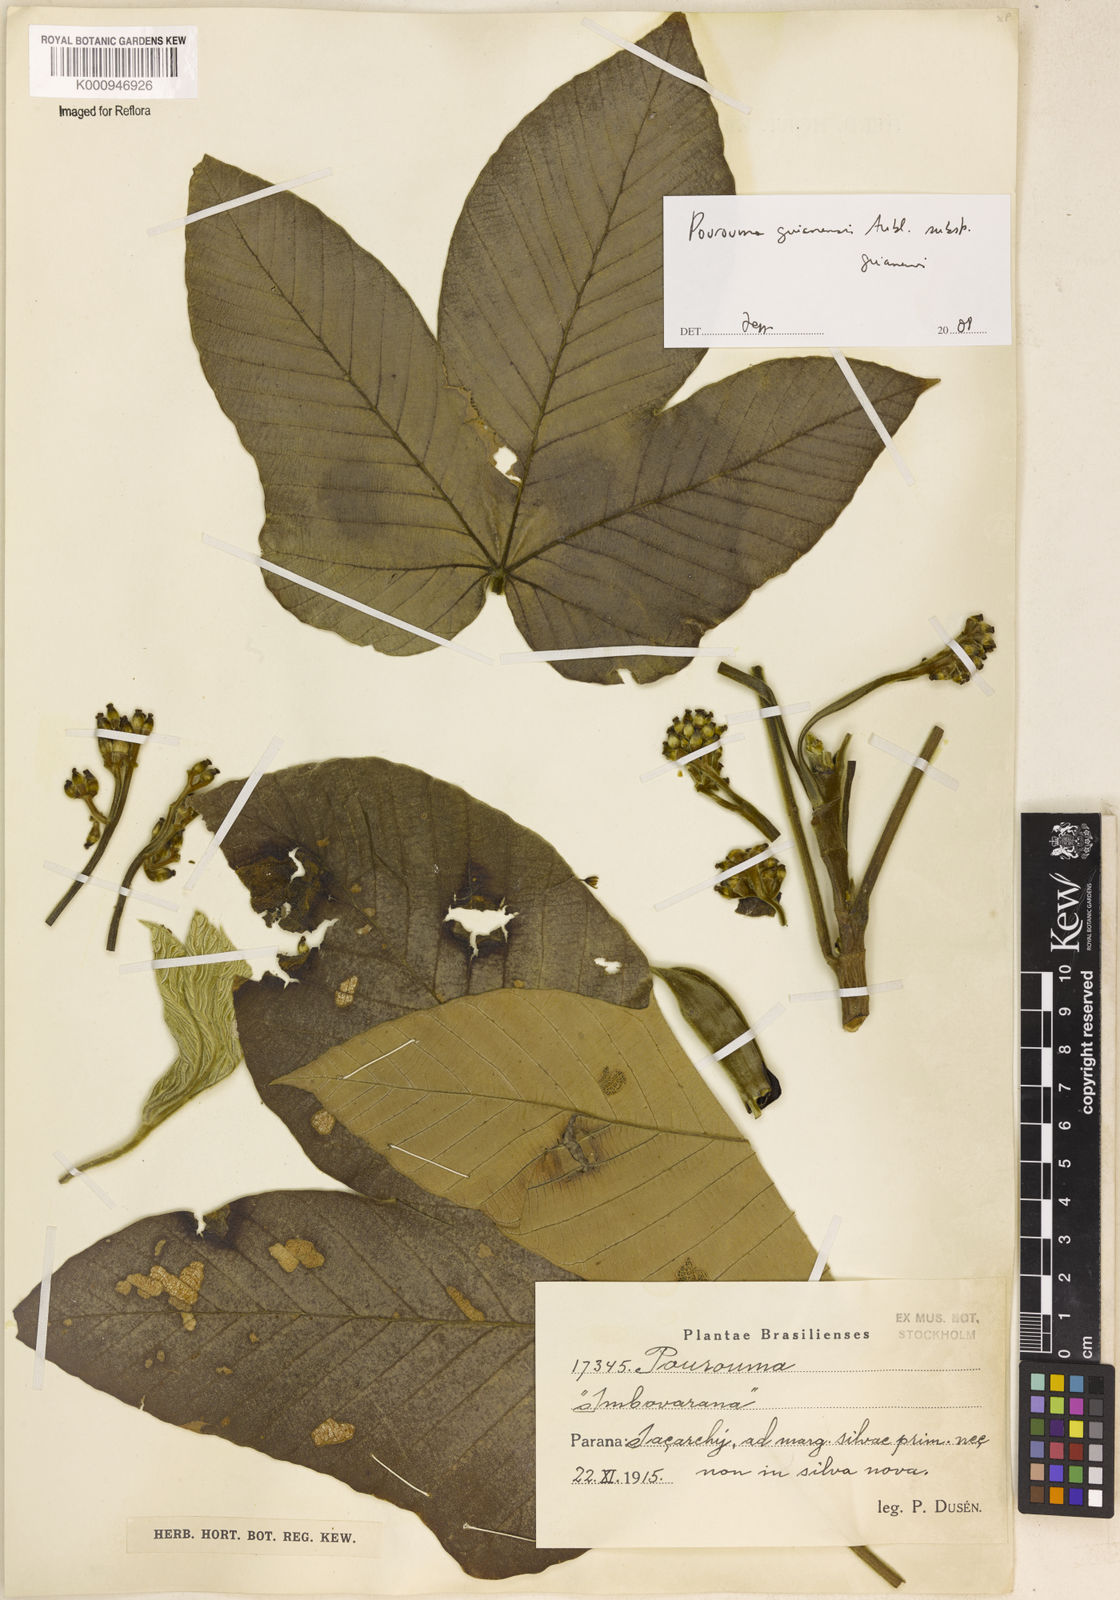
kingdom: Plantae
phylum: Tracheophyta
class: Magnoliopsida
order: Rosales
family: Urticaceae
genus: Pourouma
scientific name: Pourouma guianensis
